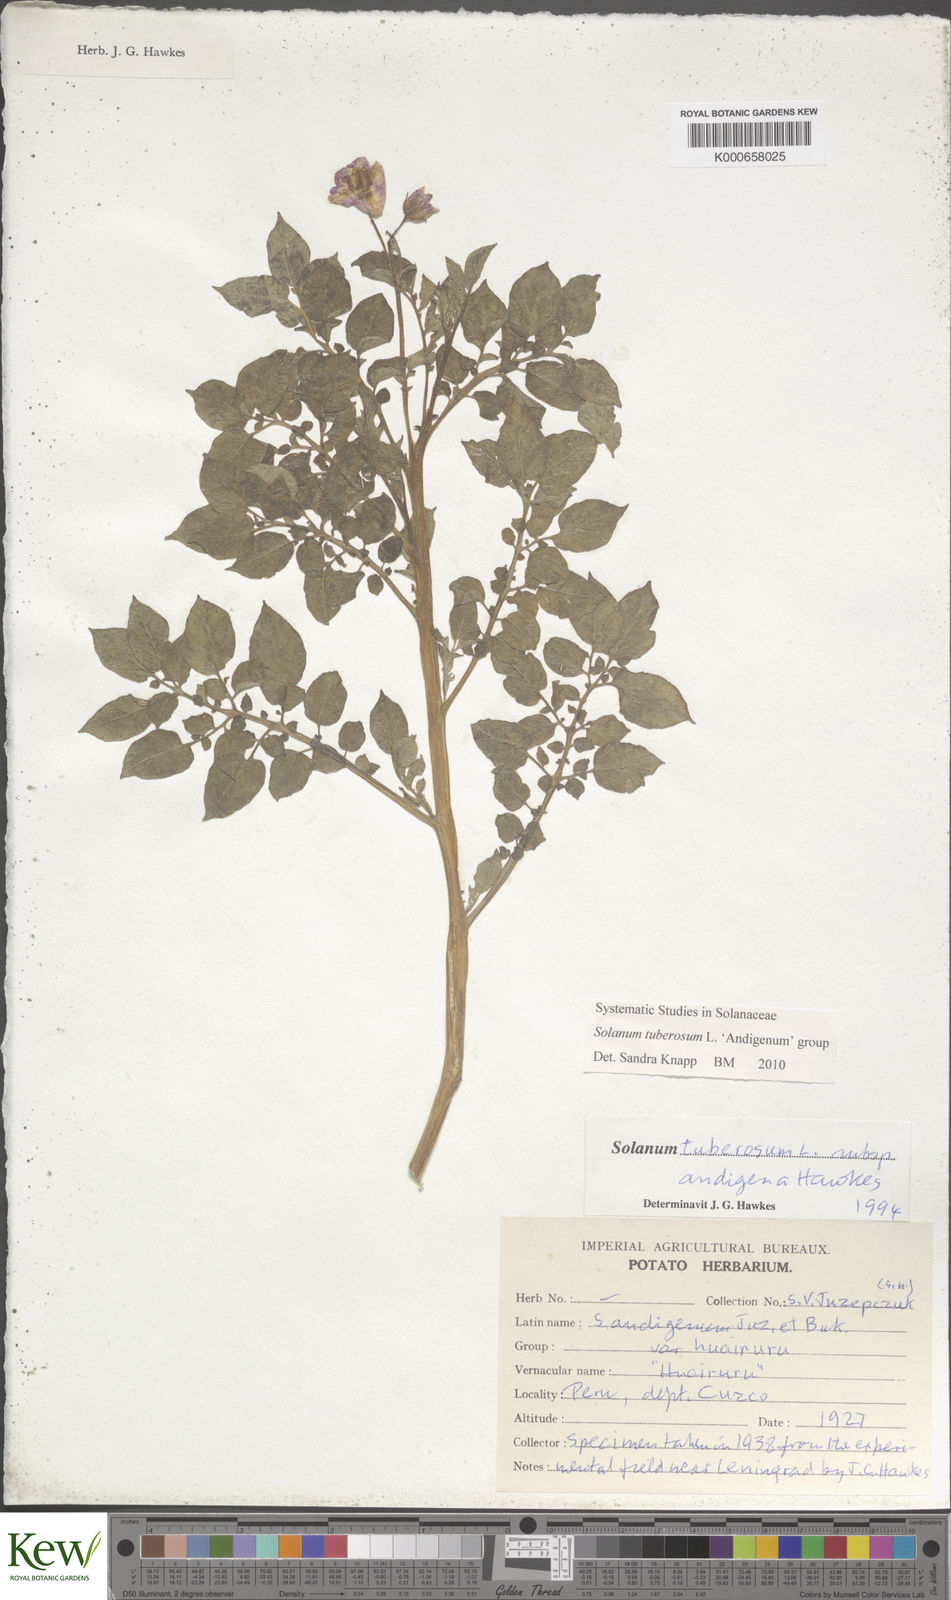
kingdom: Plantae
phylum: Tracheophyta
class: Magnoliopsida
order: Solanales
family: Solanaceae
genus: Solanum
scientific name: Solanum tuberosum
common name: Potato
